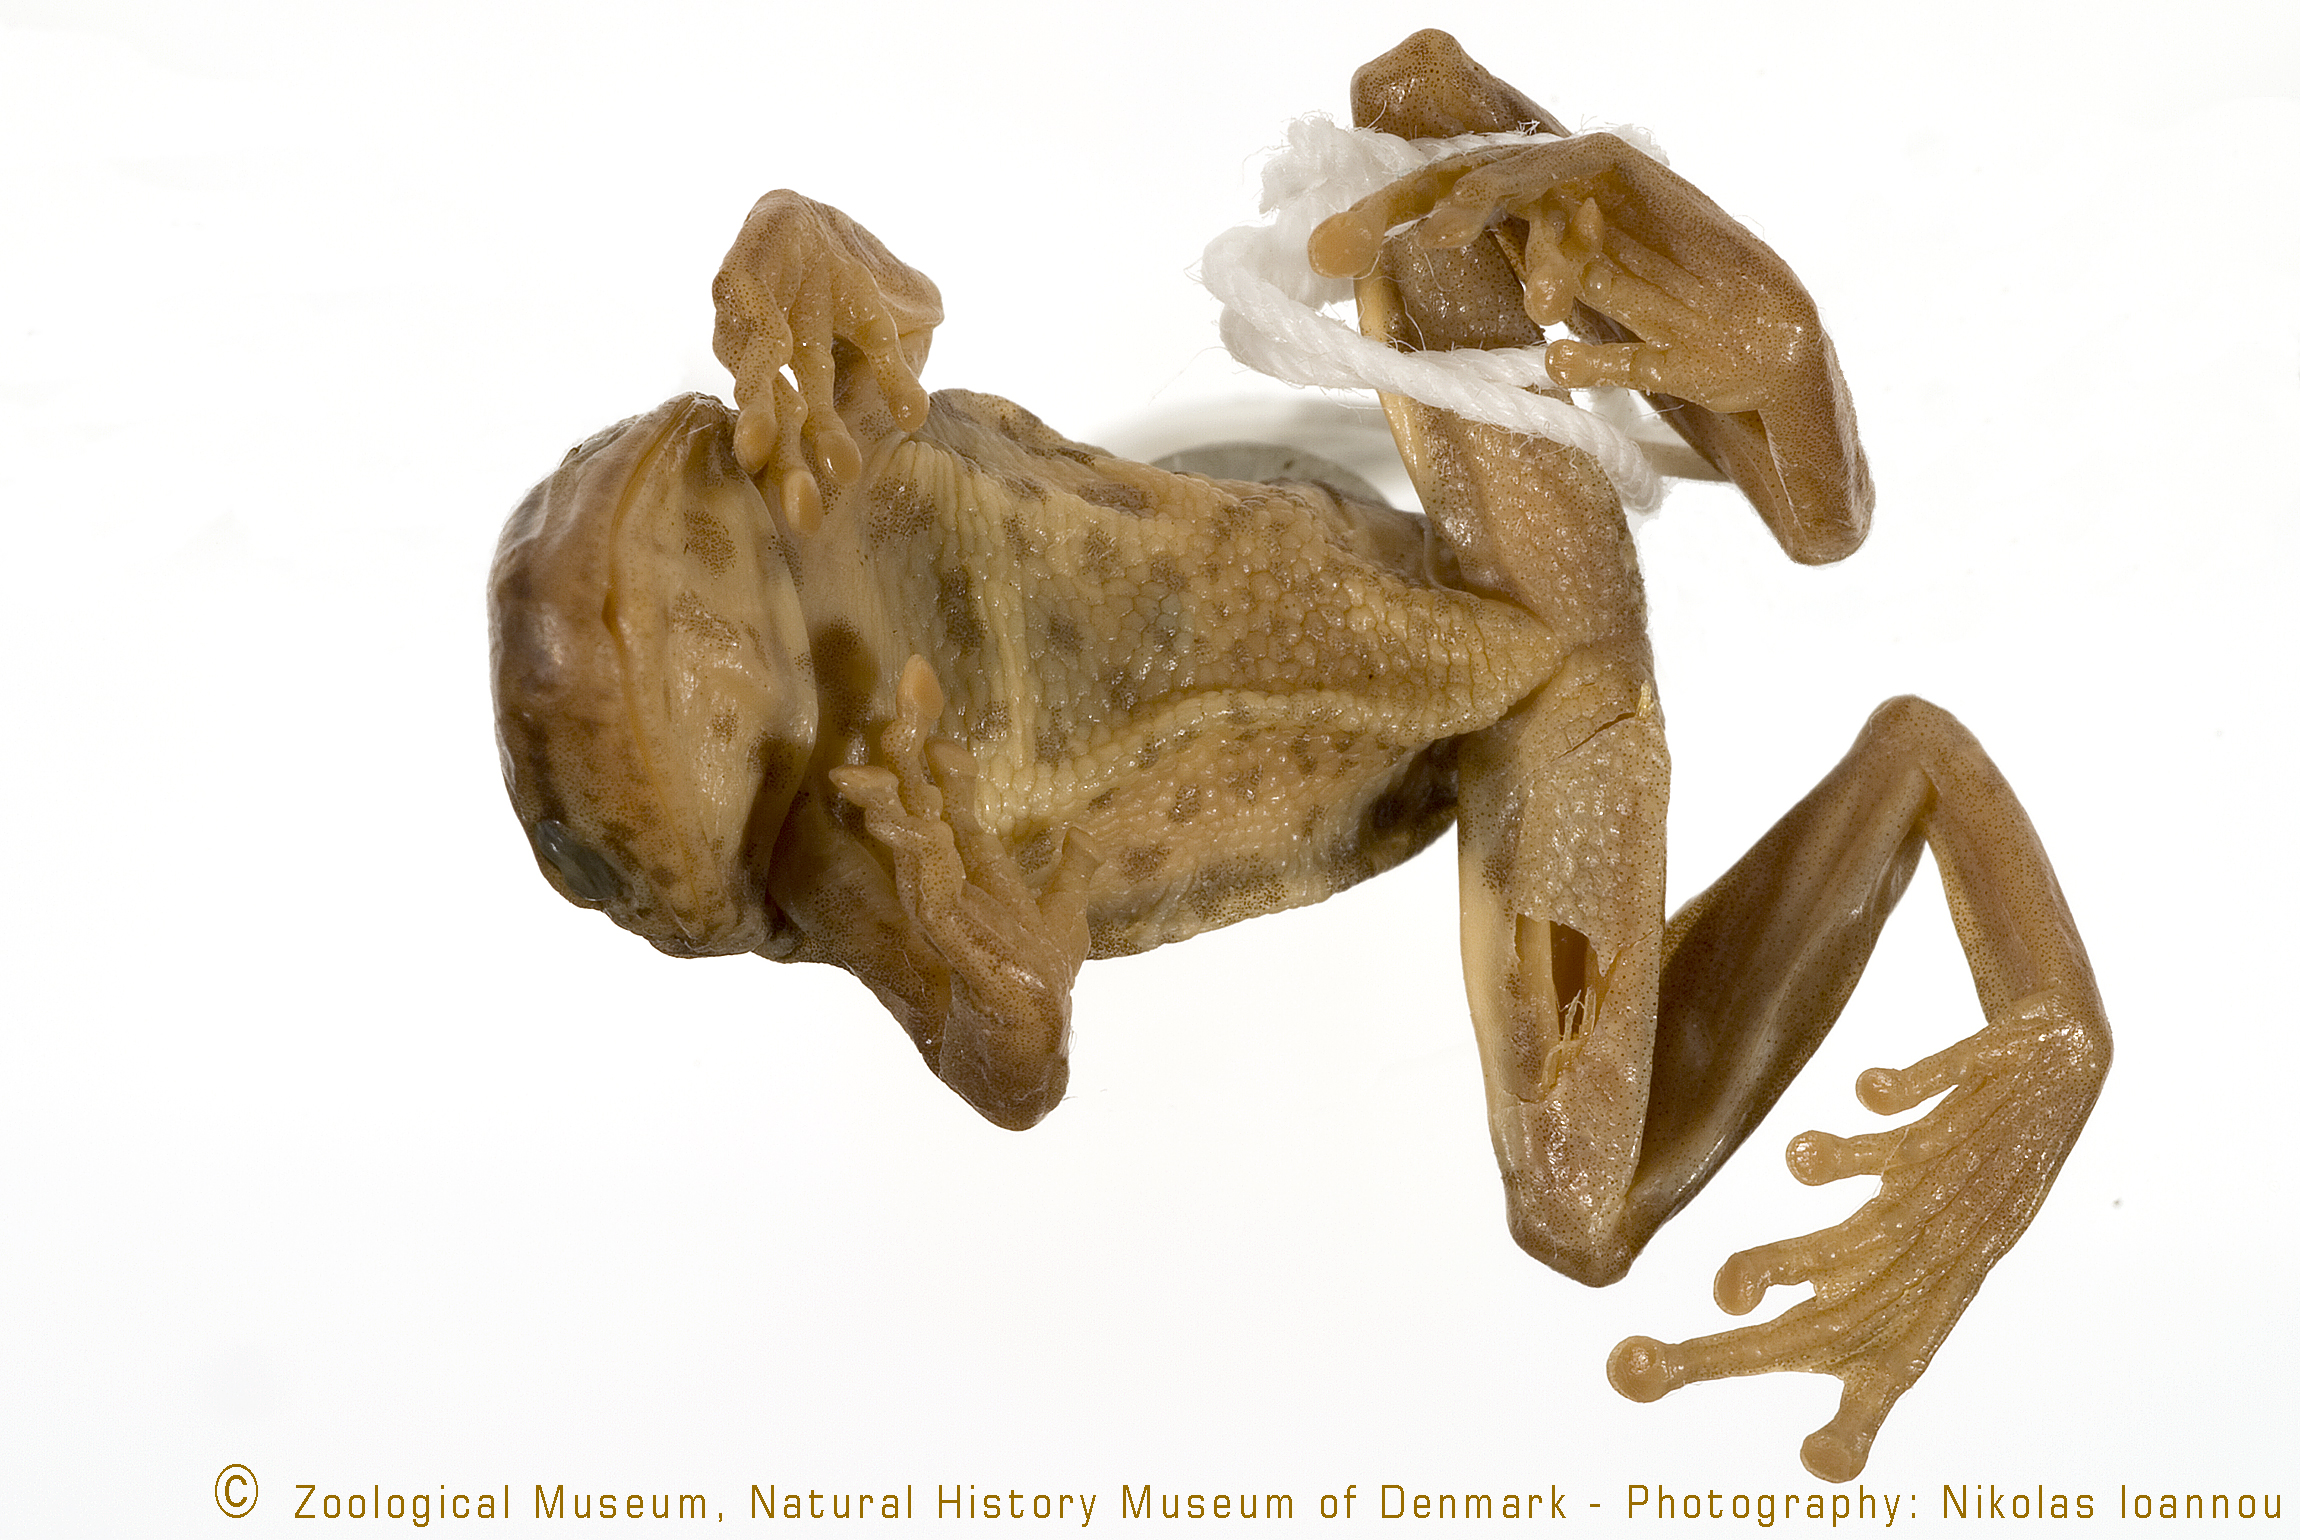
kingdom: Animalia
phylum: Chordata
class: Amphibia
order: Anura
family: Hyperoliidae
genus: Hyperolius
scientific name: Hyperolius cinnamomeoventris
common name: Duque reed frog
